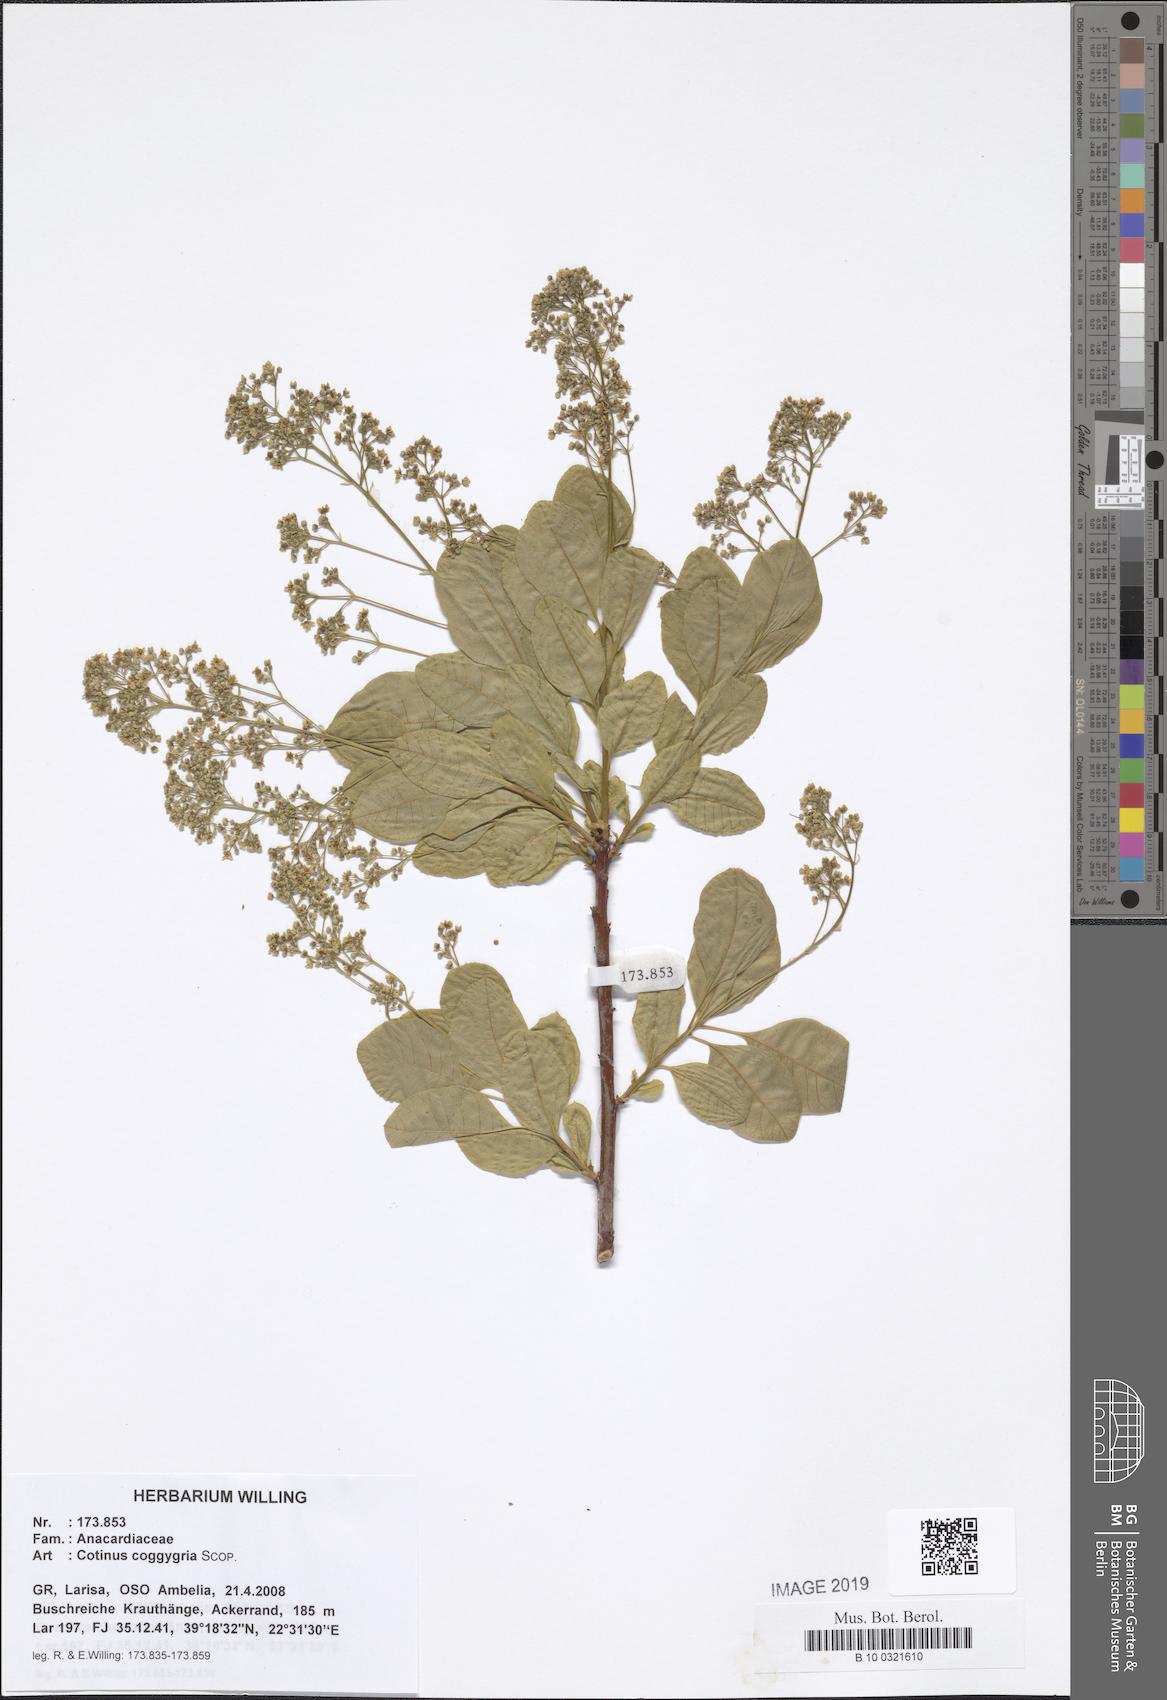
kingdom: Plantae
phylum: Tracheophyta
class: Magnoliopsida
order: Sapindales
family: Anacardiaceae
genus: Cotinus
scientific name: Cotinus coggygria
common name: Smoke-tree
